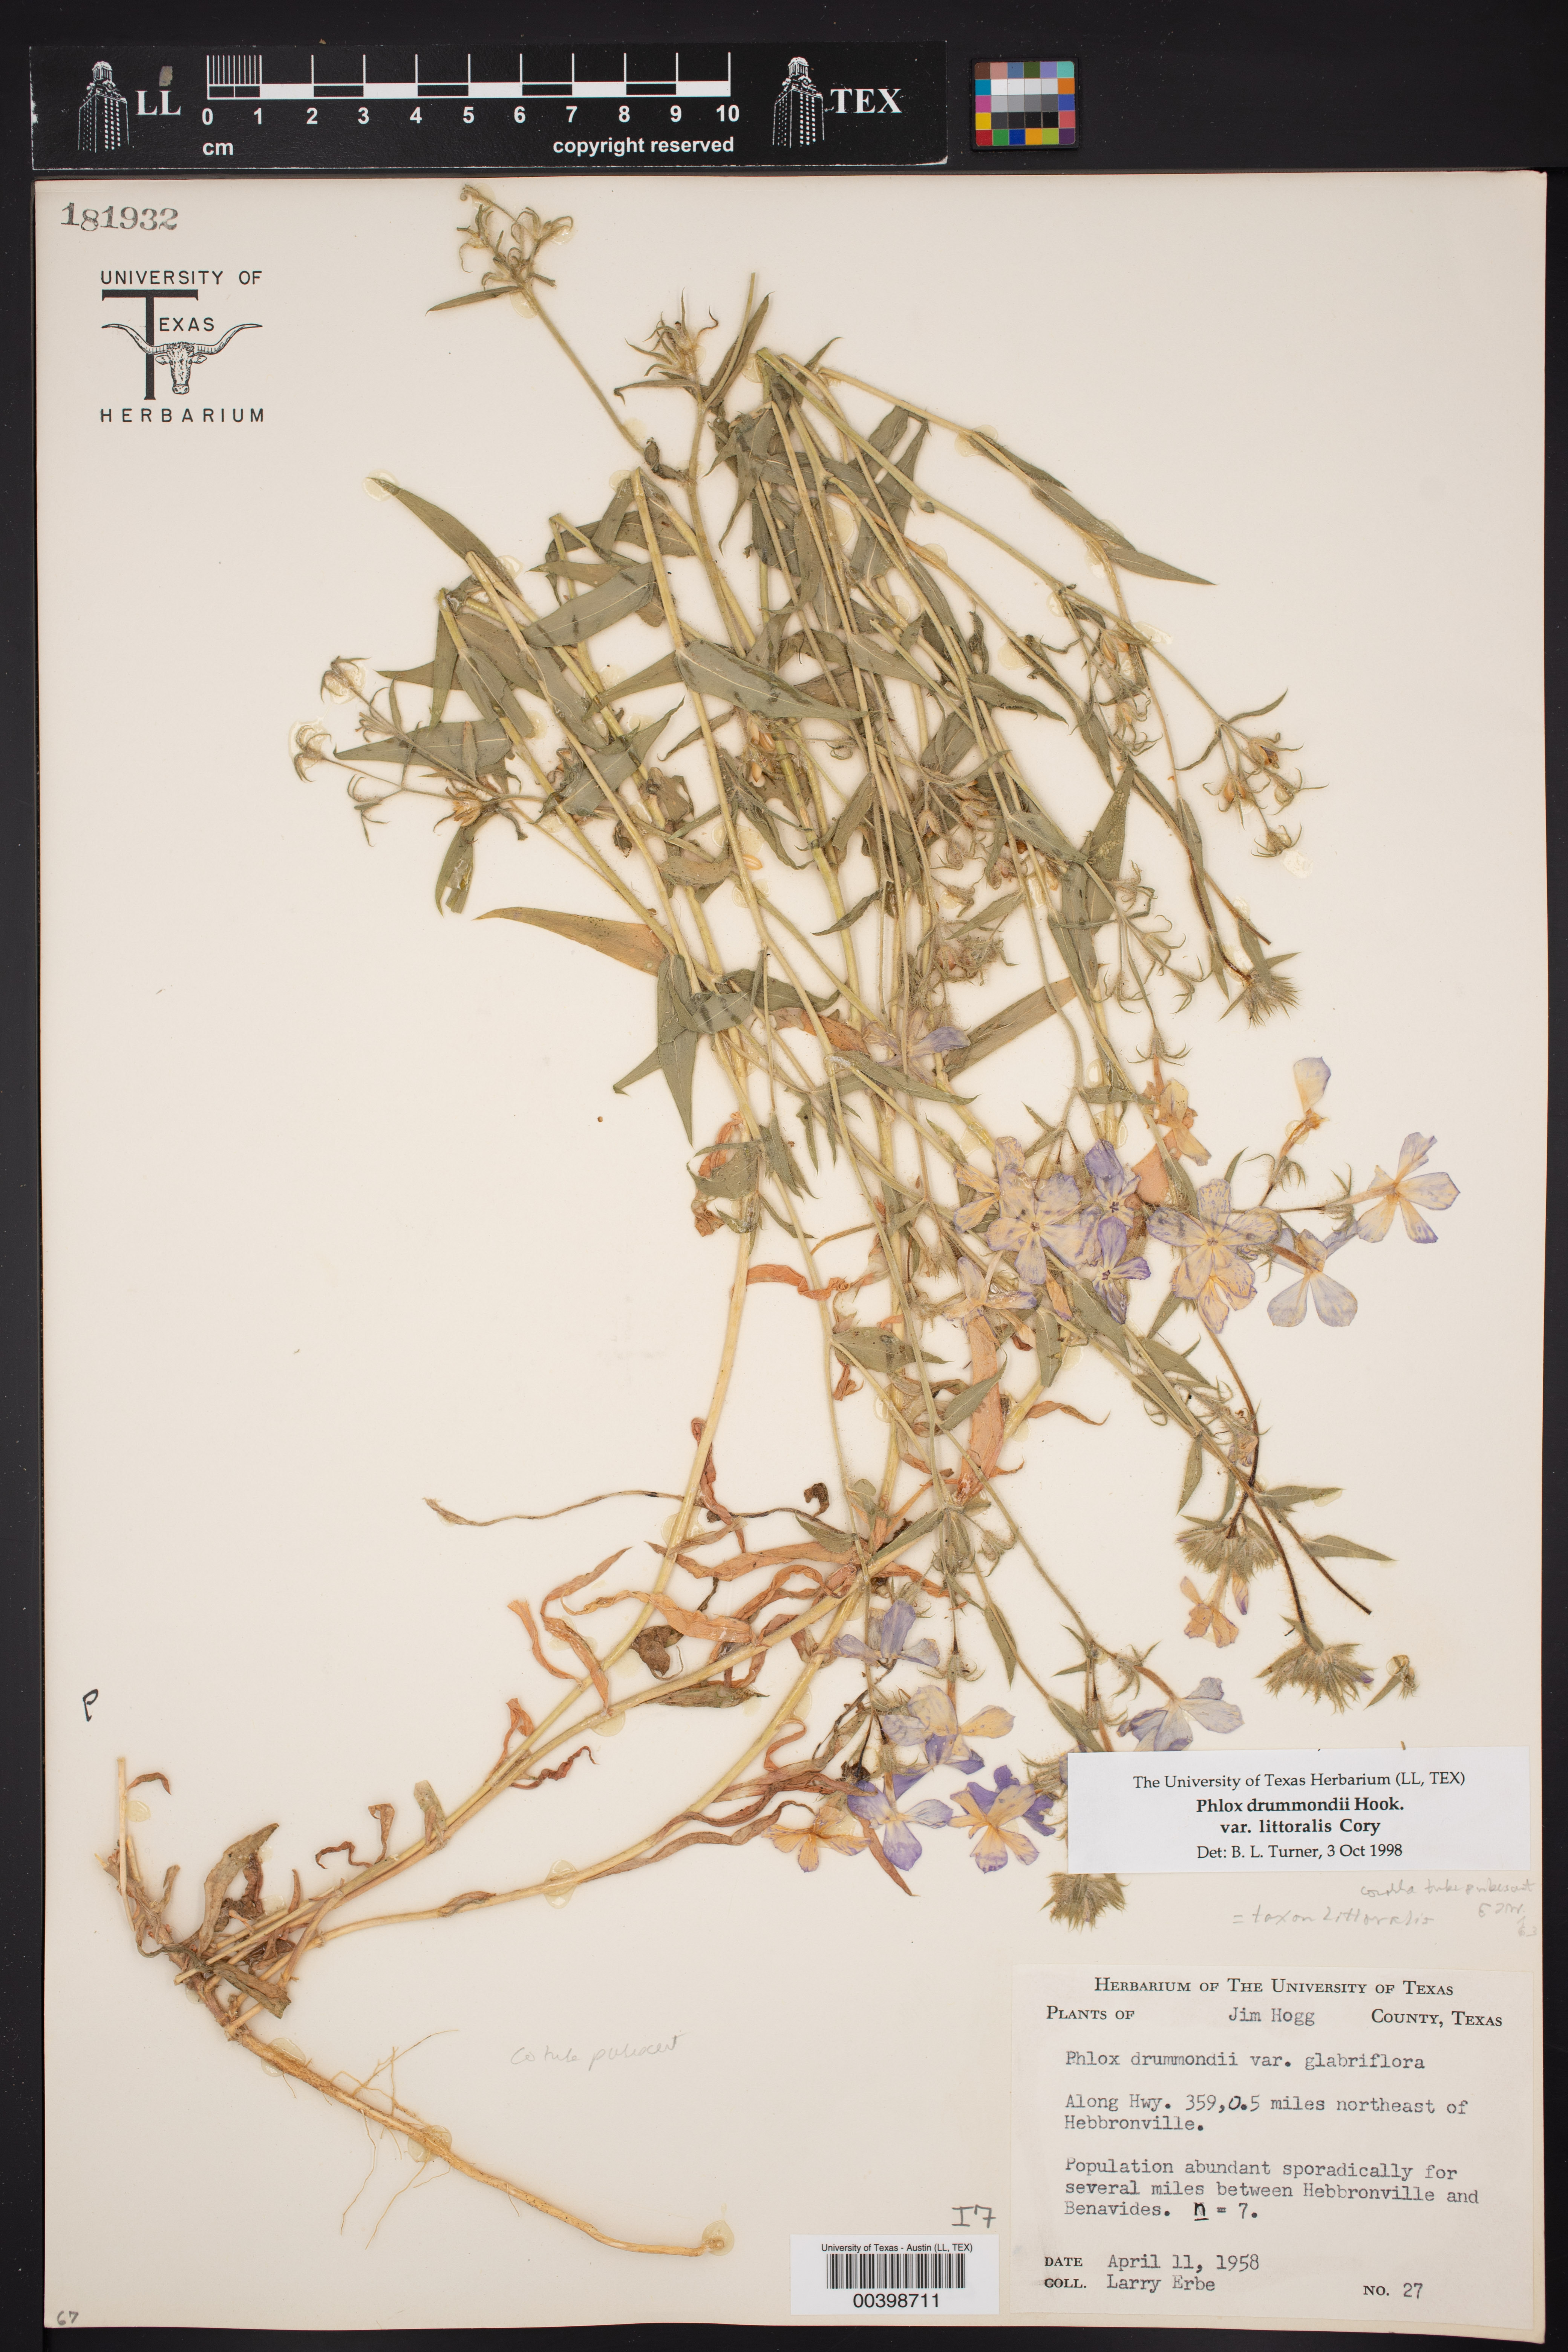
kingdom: Plantae
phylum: Tracheophyta
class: Magnoliopsida
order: Ericales
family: Polemoniaceae
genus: Phlox
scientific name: Phlox glabriflora
